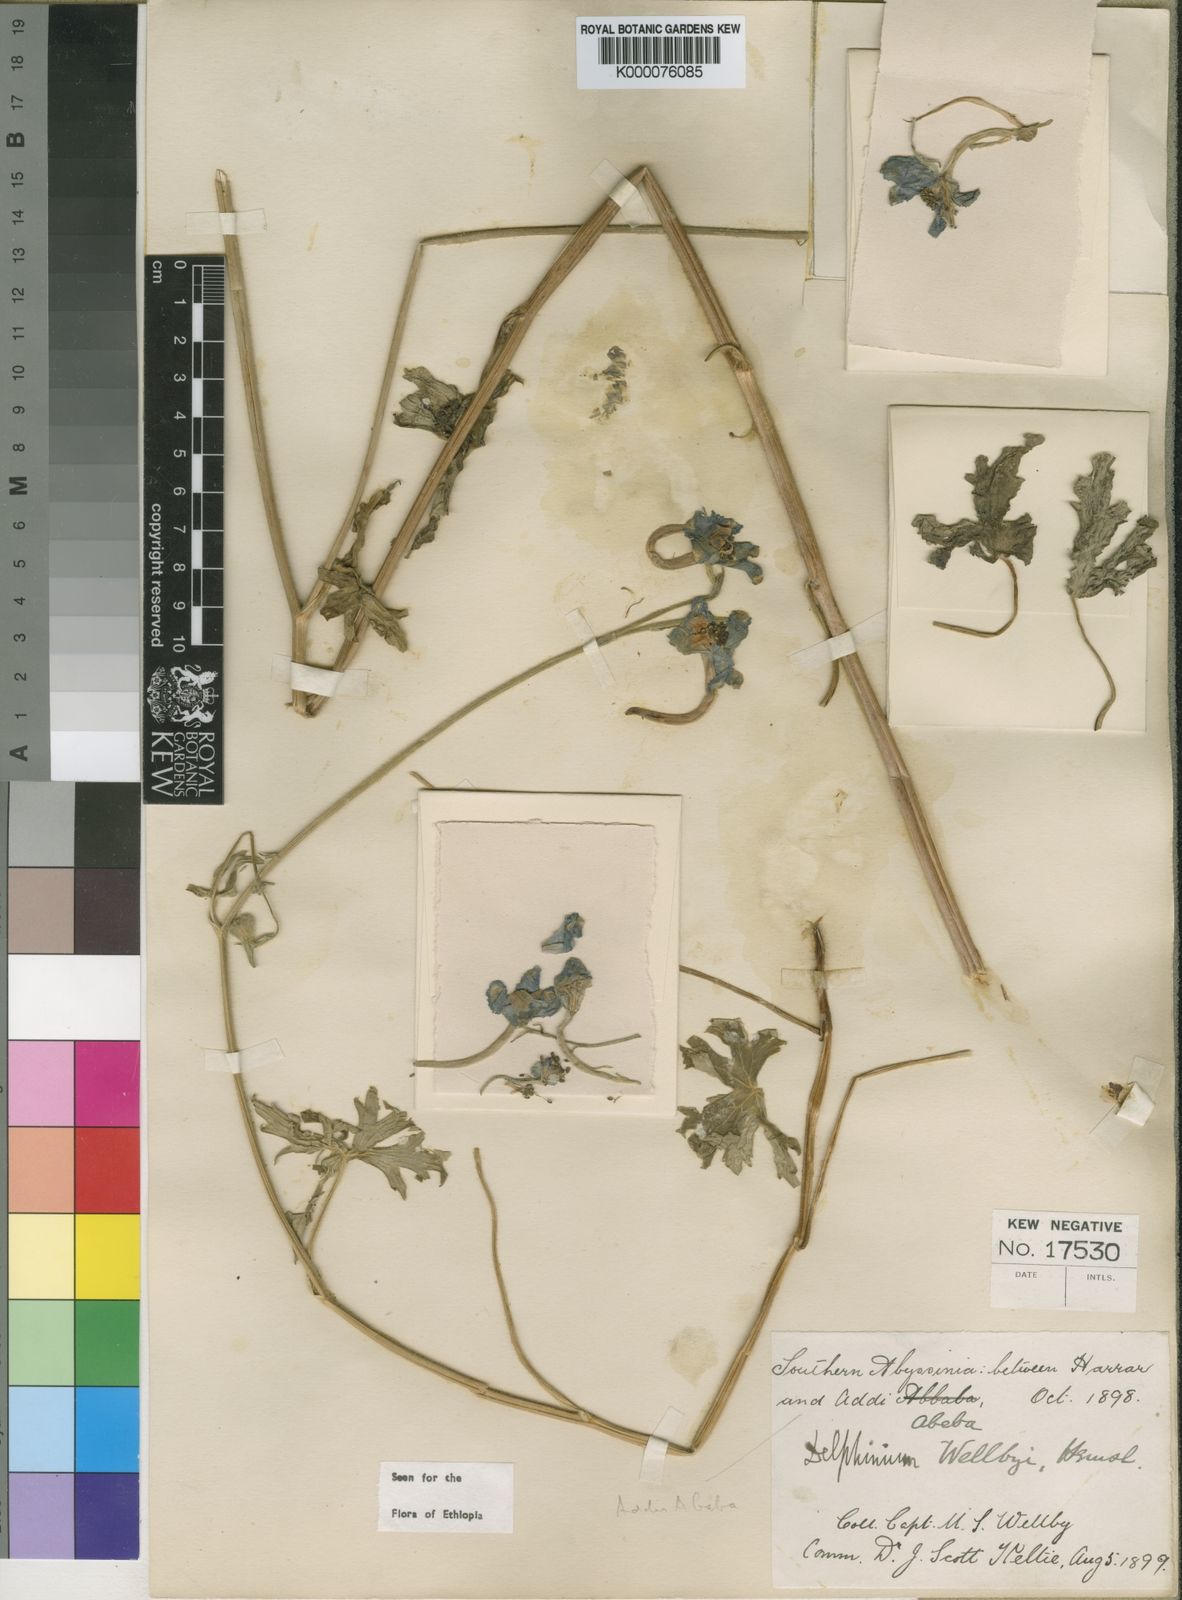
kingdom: Plantae
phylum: Tracheophyta
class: Magnoliopsida
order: Ranunculales
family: Ranunculaceae
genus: Delphinium
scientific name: Delphinium leroyi
